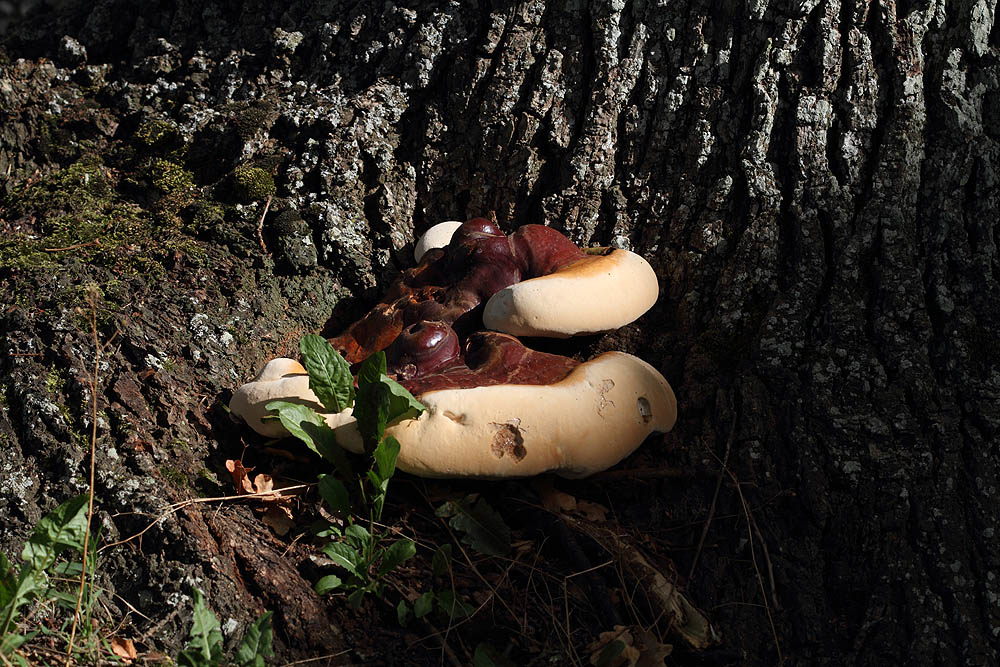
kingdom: Fungi
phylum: Basidiomycota
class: Agaricomycetes
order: Polyporales
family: Polyporaceae
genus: Ganoderma
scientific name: Ganoderma resinaceum
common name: gyldenbrun lakporesvamp
